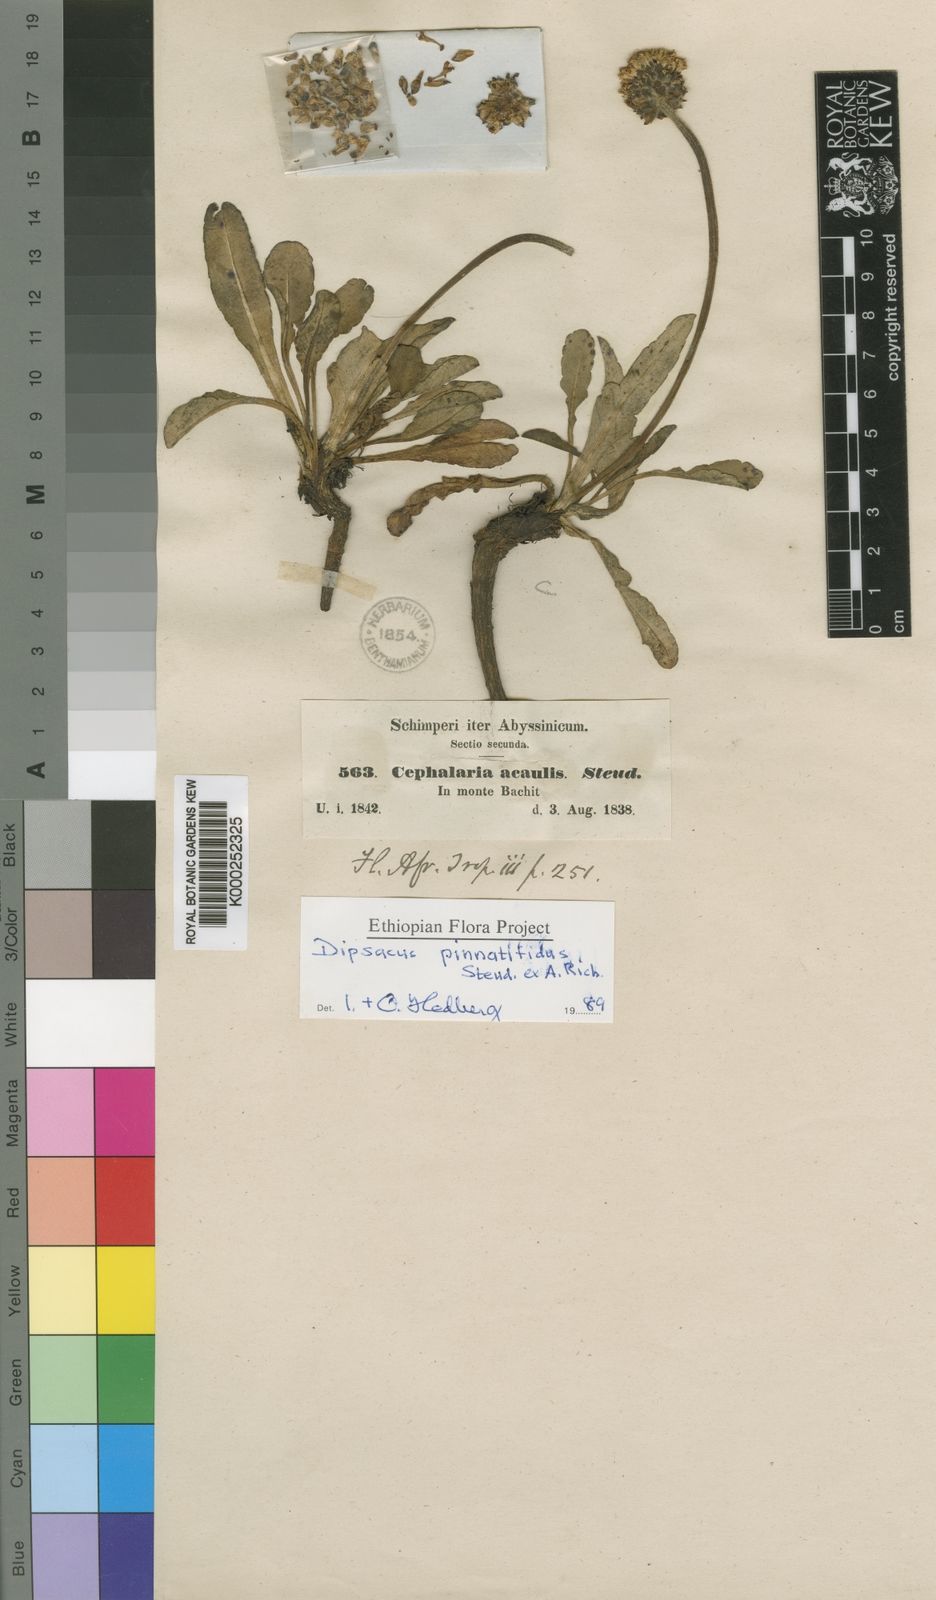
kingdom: Plantae
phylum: Tracheophyta
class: Magnoliopsida
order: Dipsacales
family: Caprifoliaceae
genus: Dipsacus
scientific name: Dipsacus pinnatifidus
